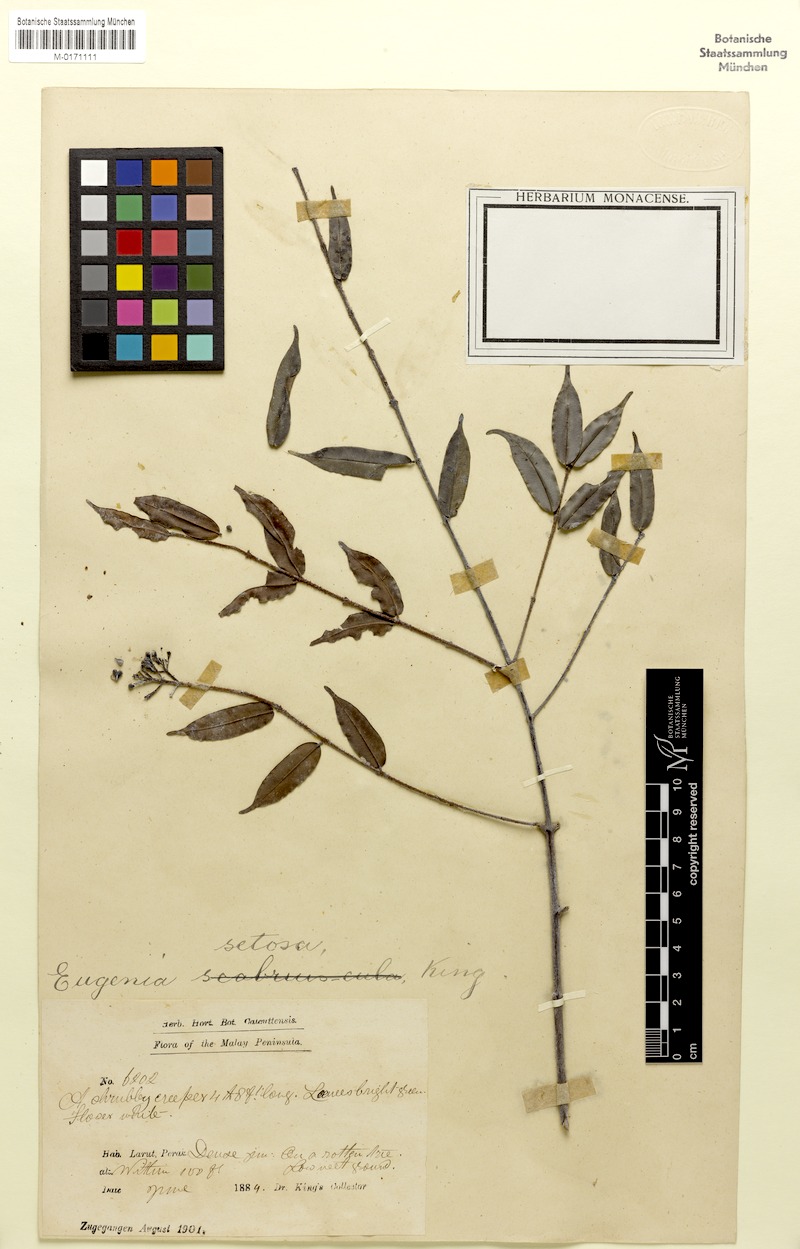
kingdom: Plantae
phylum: Tracheophyta
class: Magnoliopsida
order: Myrtales
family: Myrtaceae
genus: Syzygium
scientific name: Syzygium setosum
